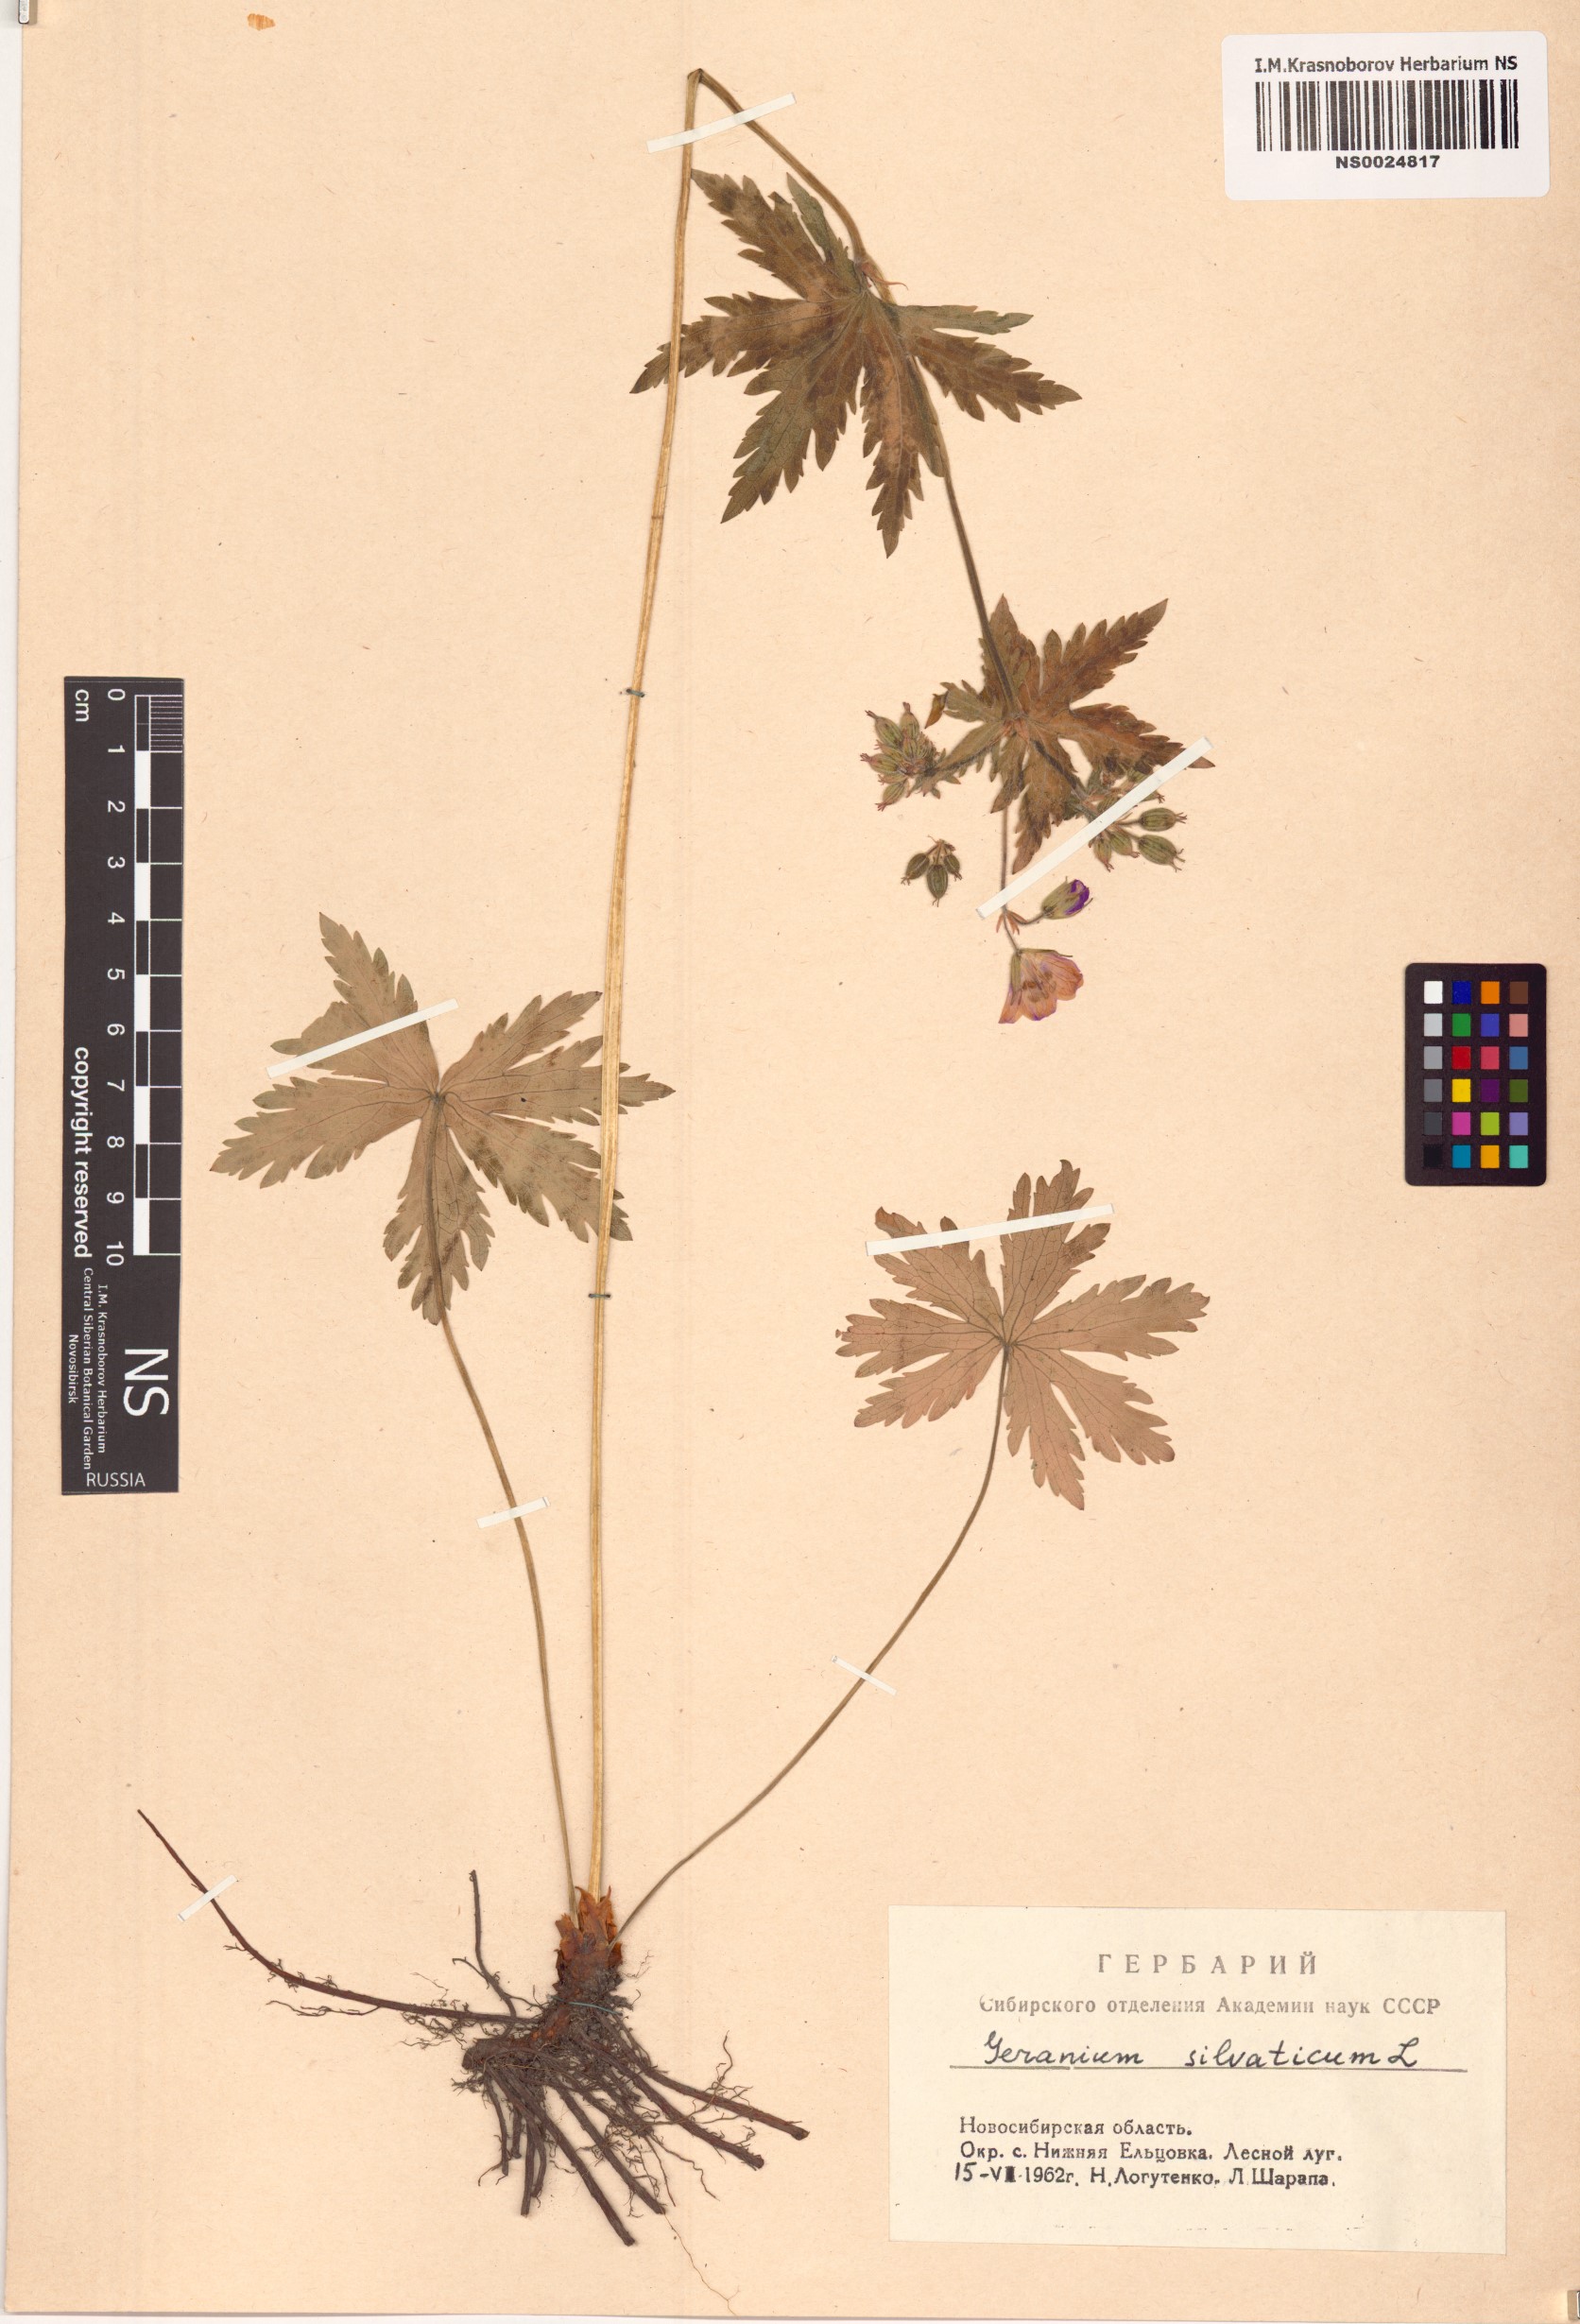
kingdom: Plantae
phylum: Tracheophyta
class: Magnoliopsida
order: Geraniales
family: Geraniaceae
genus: Geranium
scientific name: Geranium sylvaticum
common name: Wood crane's-bill
